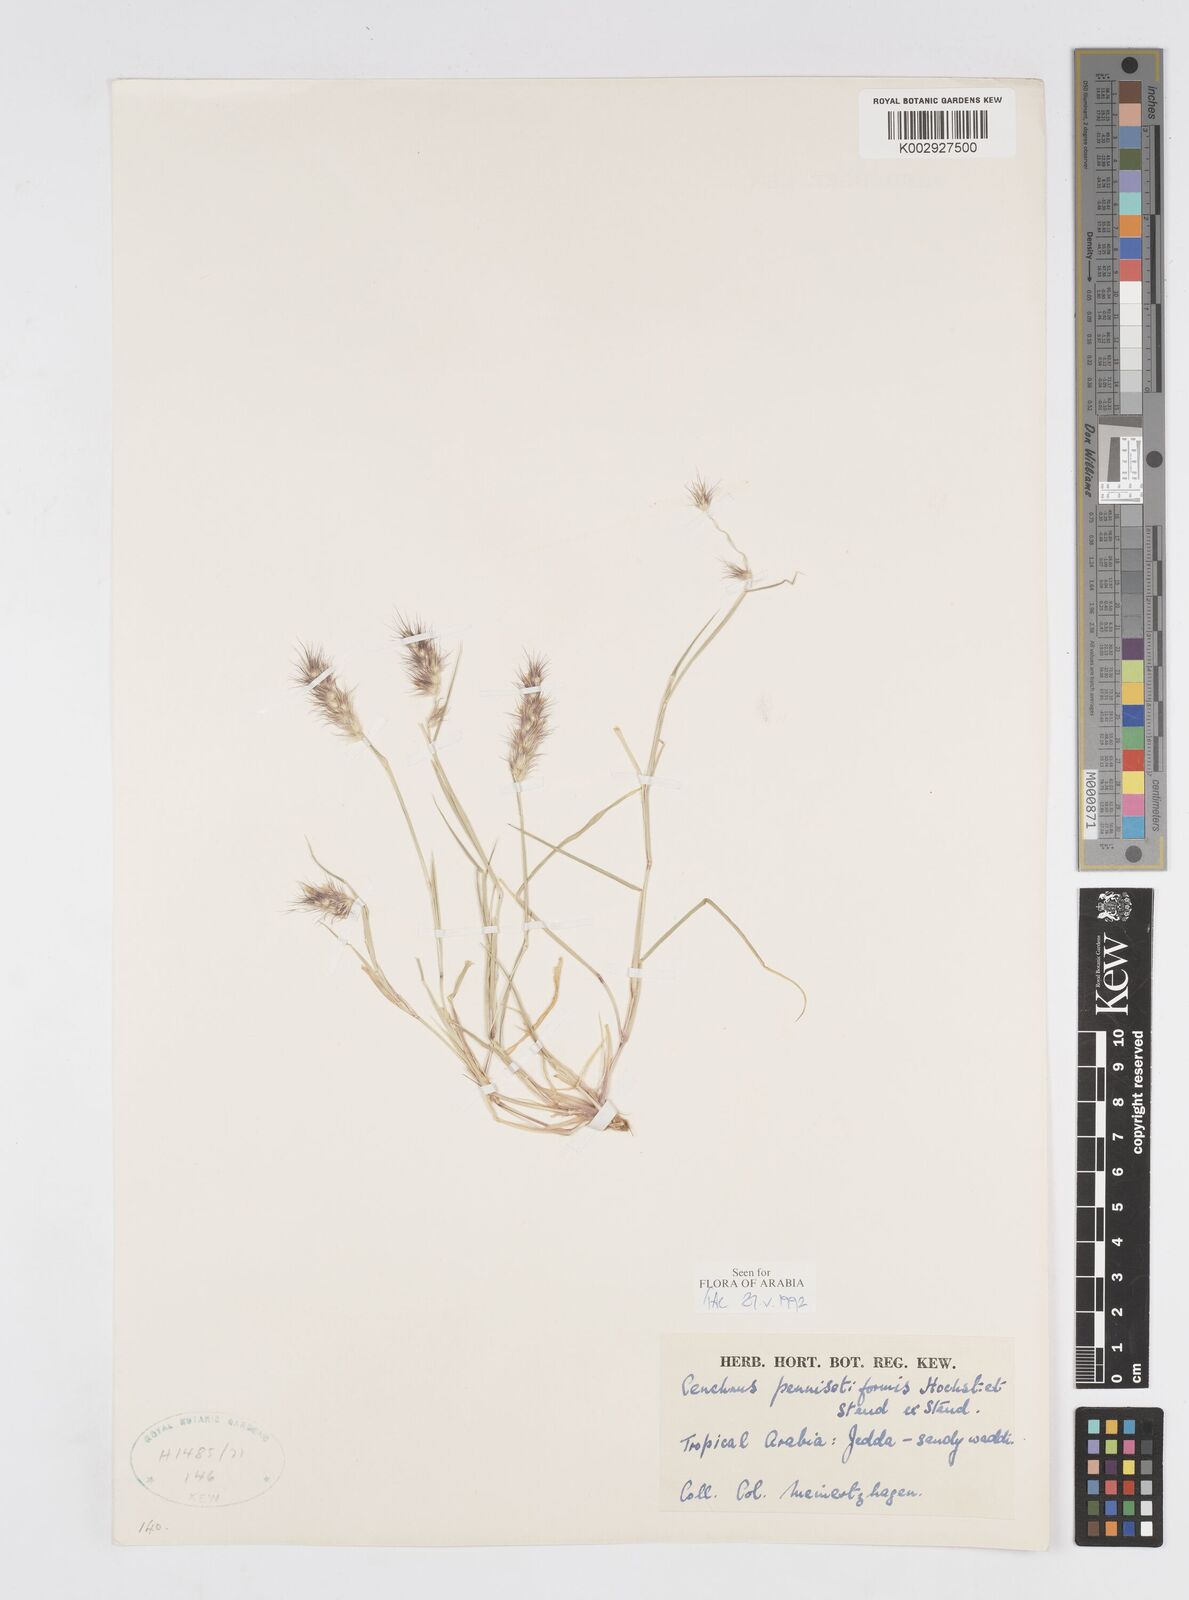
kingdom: Plantae
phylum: Tracheophyta
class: Liliopsida
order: Poales
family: Poaceae
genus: Cenchrus
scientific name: Cenchrus pennisetiformis
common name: Cloncurry
